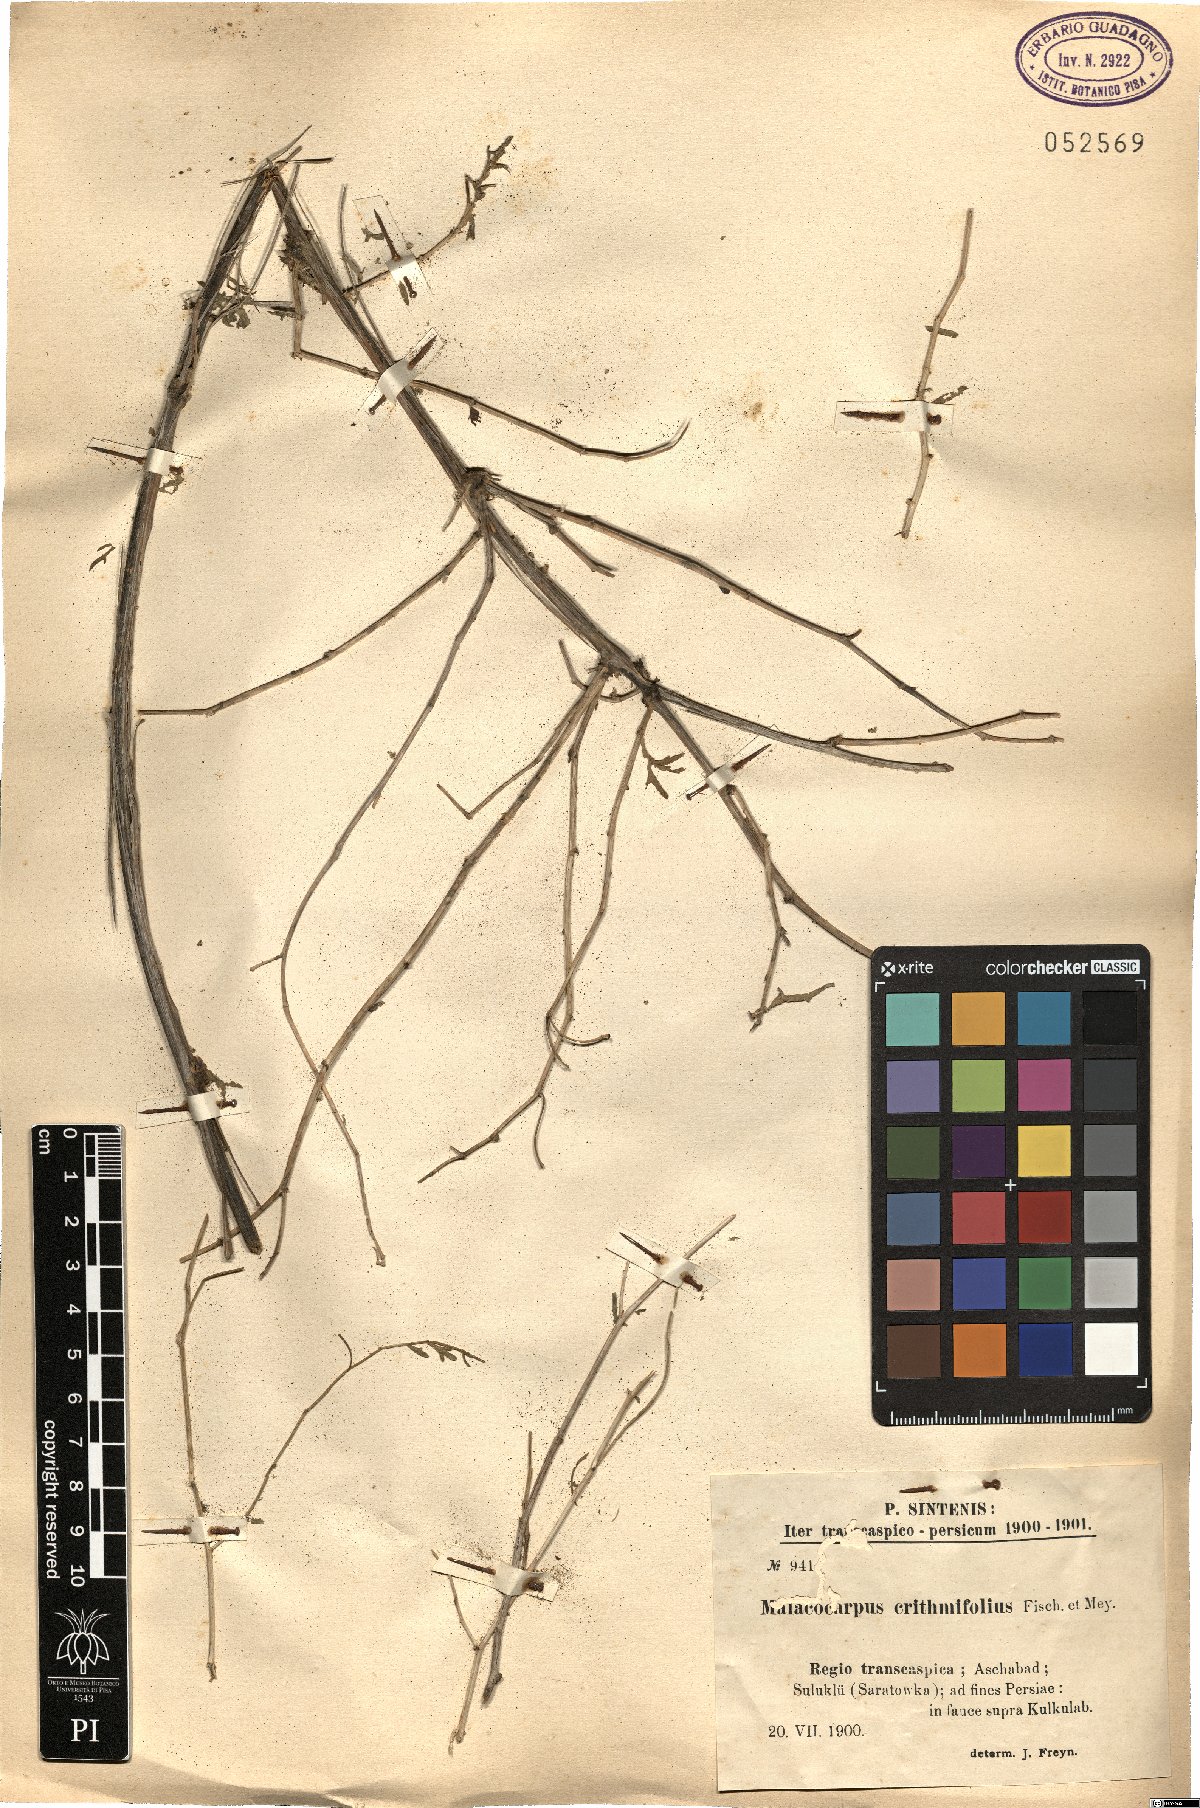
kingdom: Plantae
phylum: Tracheophyta
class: Magnoliopsida
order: Sapindales
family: Tetradiclidaceae
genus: Malacocarpus
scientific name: Malacocarpus crithmifolius
